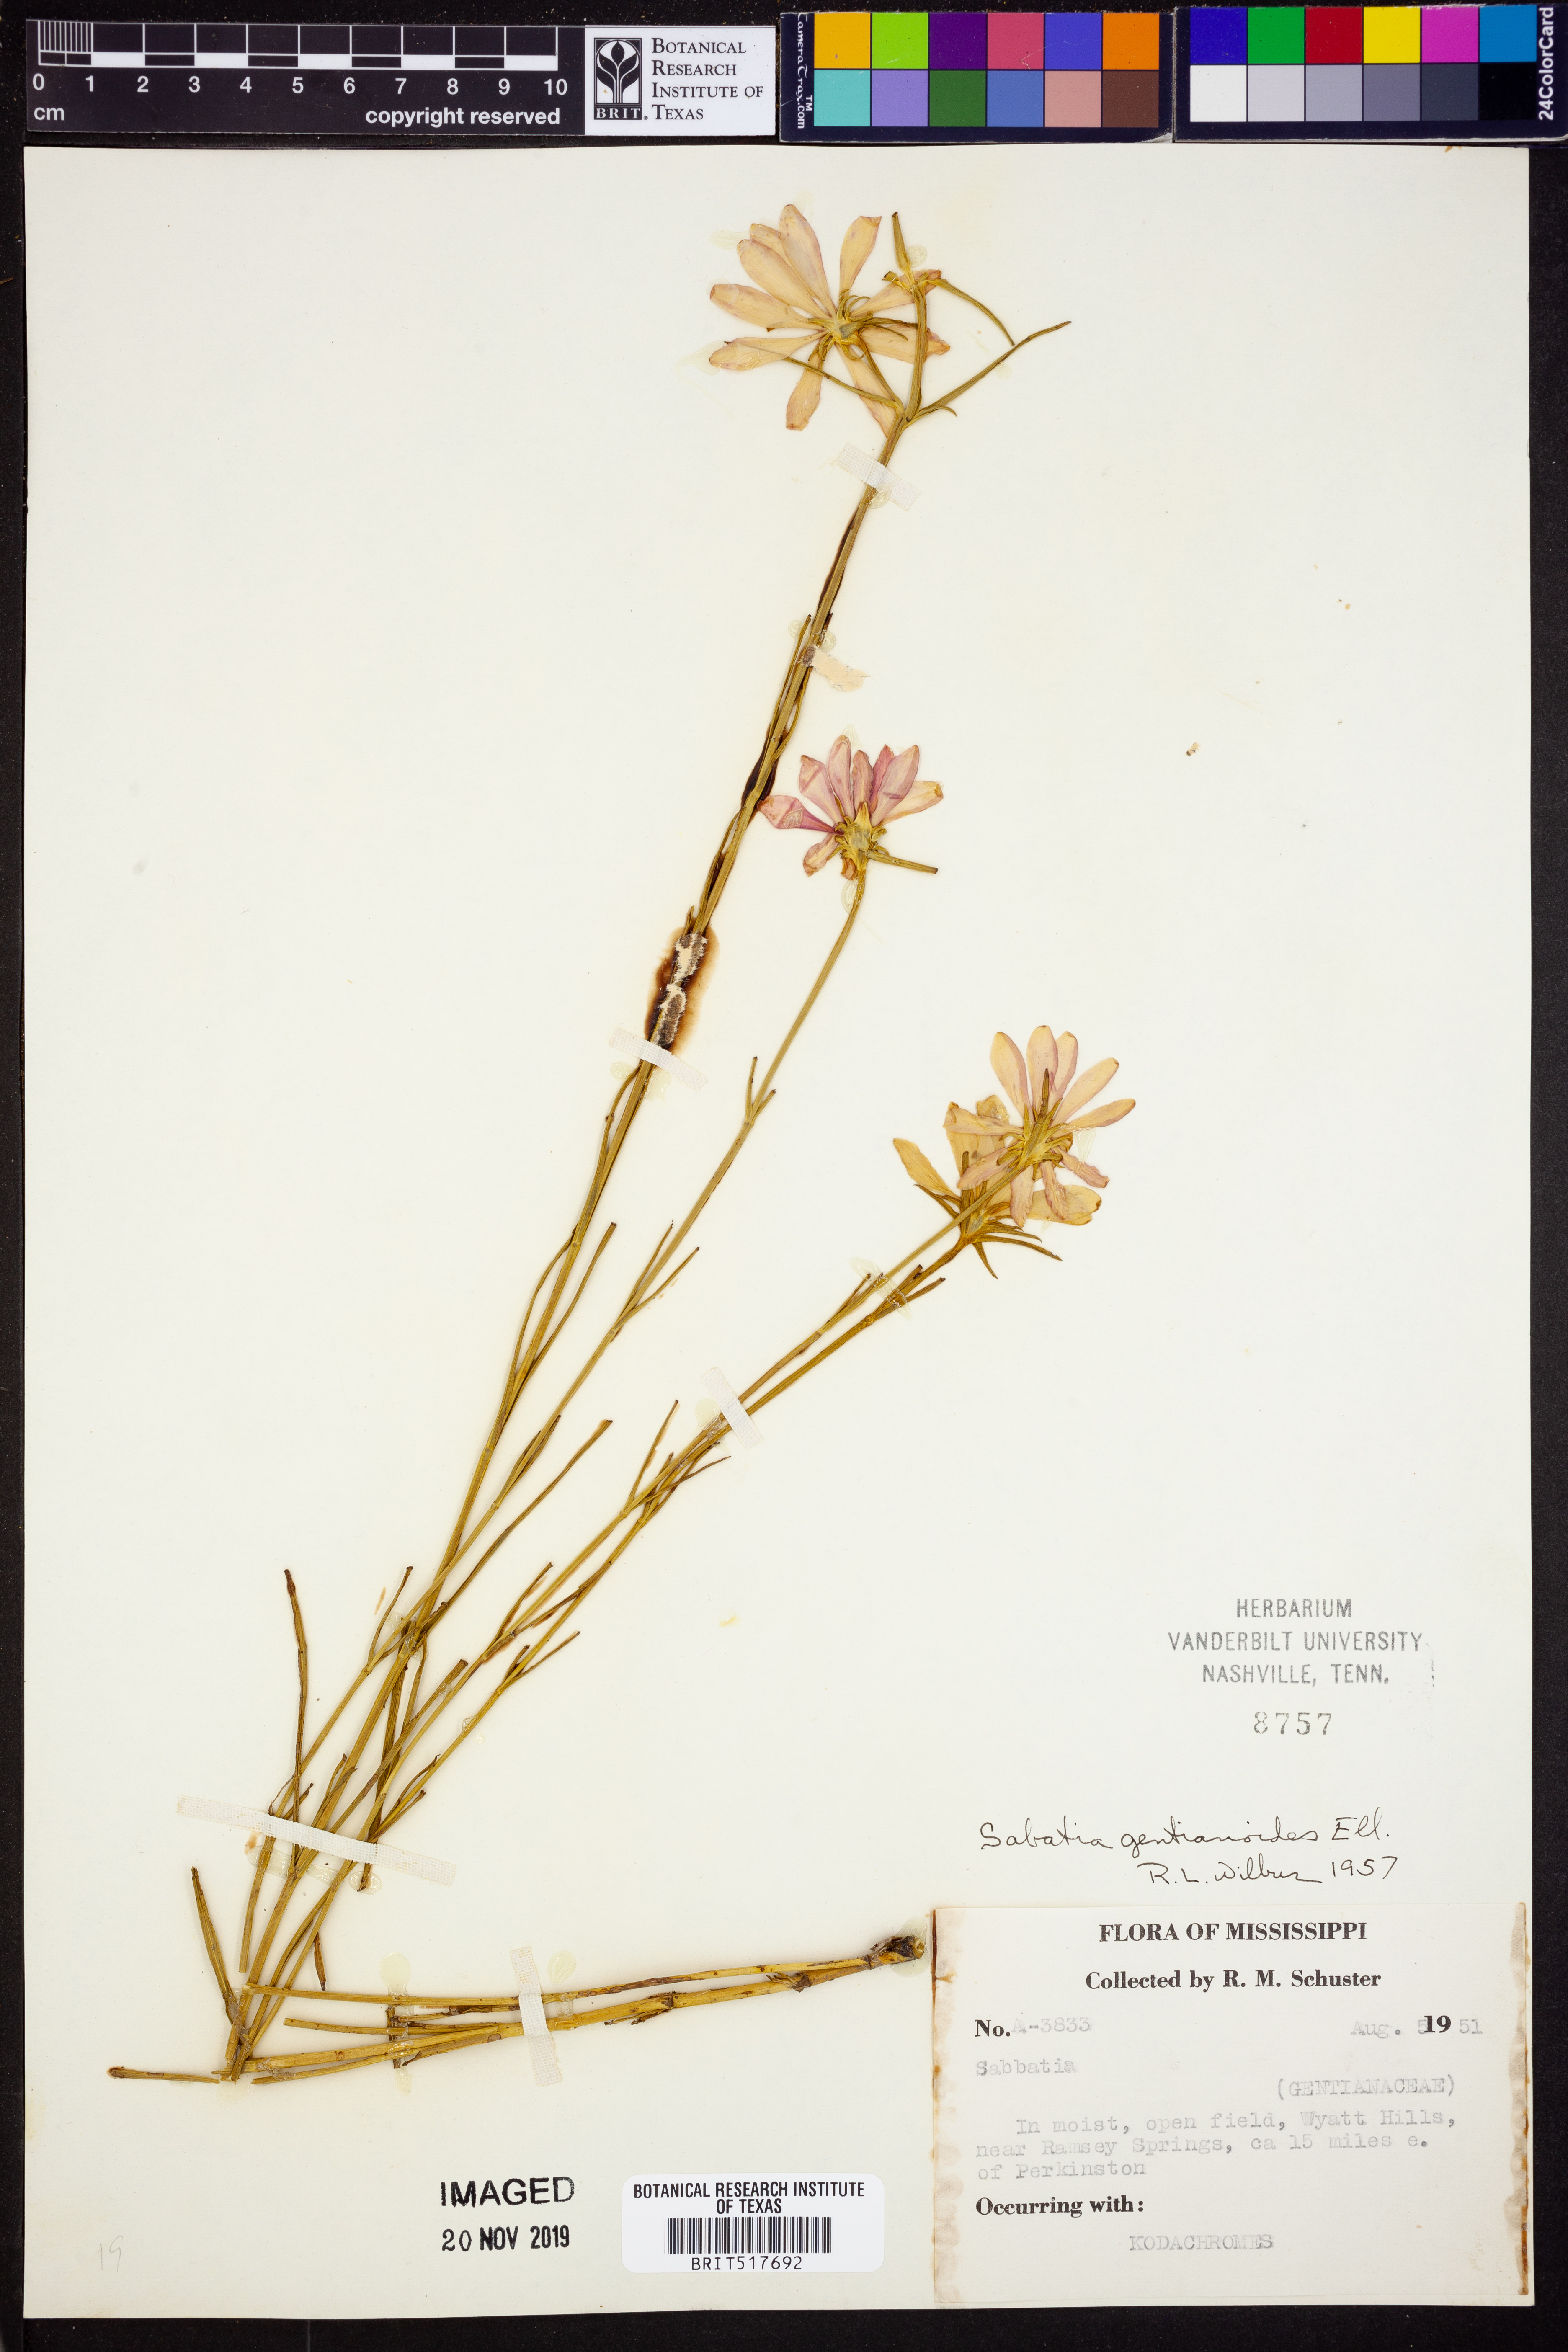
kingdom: Plantae
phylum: Tracheophyta
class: Magnoliopsida
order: Gentianales
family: Gentianaceae
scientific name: Gentianaceae
